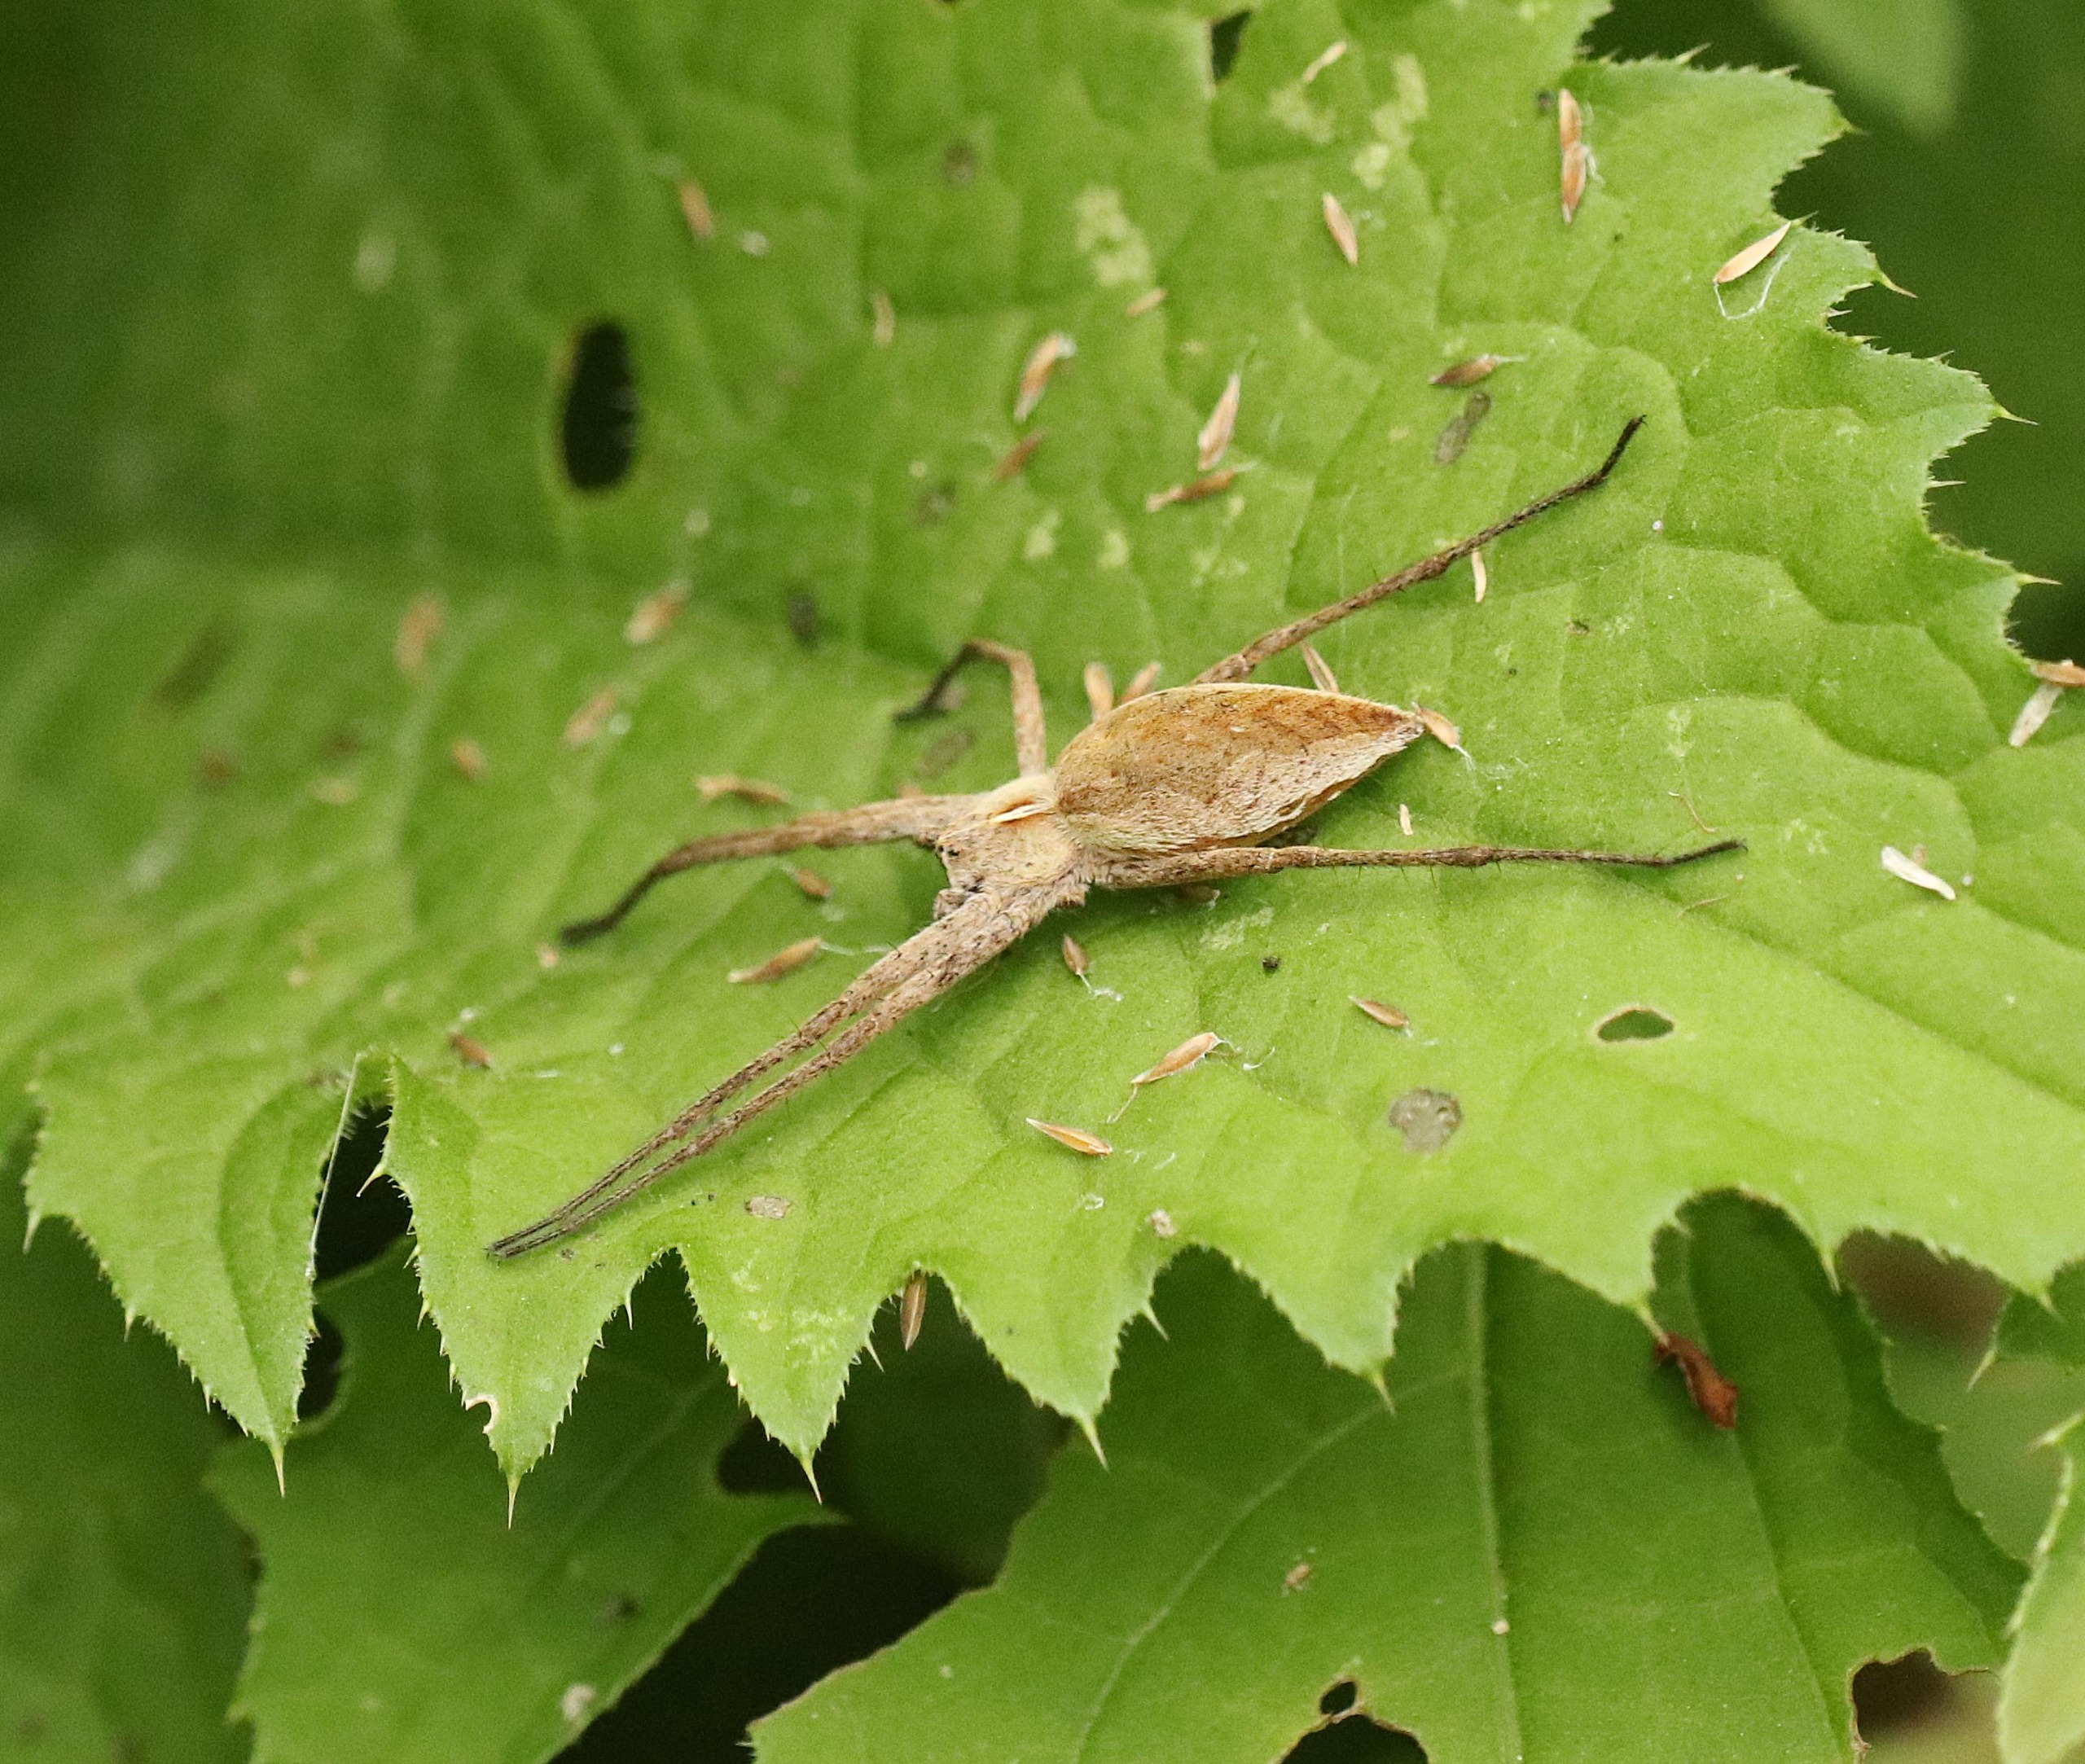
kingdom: Animalia
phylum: Arthropoda
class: Arachnida
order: Araneae
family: Pisauridae
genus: Pisaura
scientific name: Pisaura mirabilis
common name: Almindelig rovedderkop
